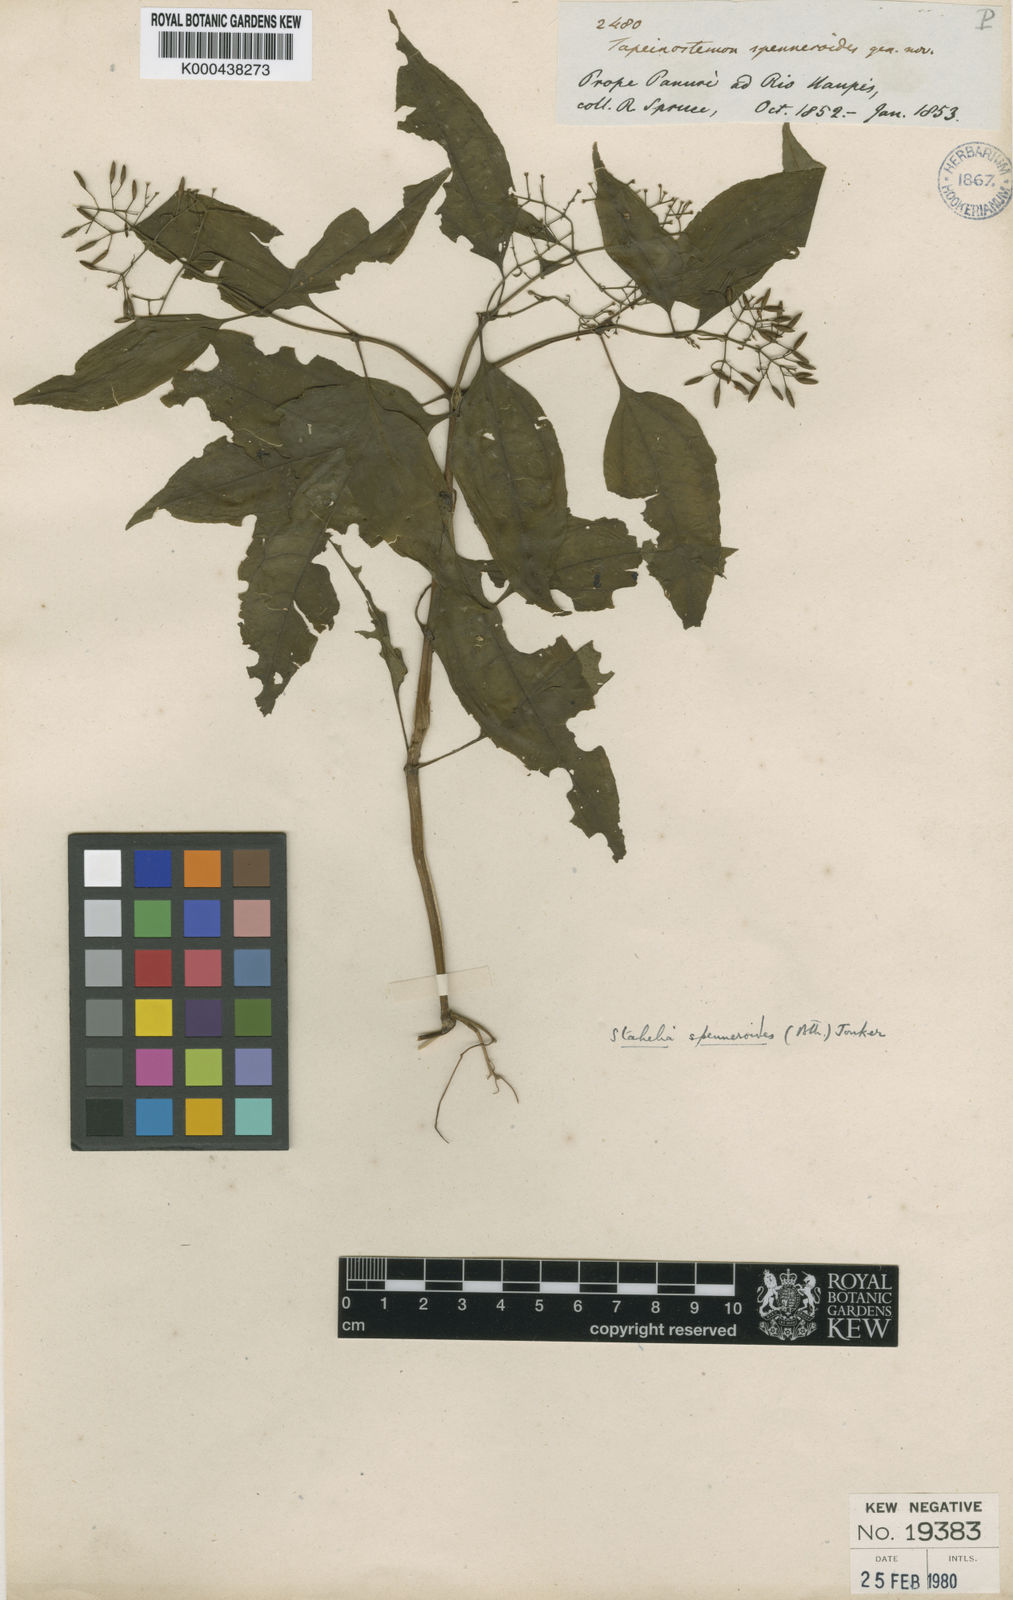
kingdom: Plantae
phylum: Tracheophyta
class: Magnoliopsida
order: Gentianales
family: Gentianaceae
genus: Tapeinostemon
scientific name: Tapeinostemon spenneroides
